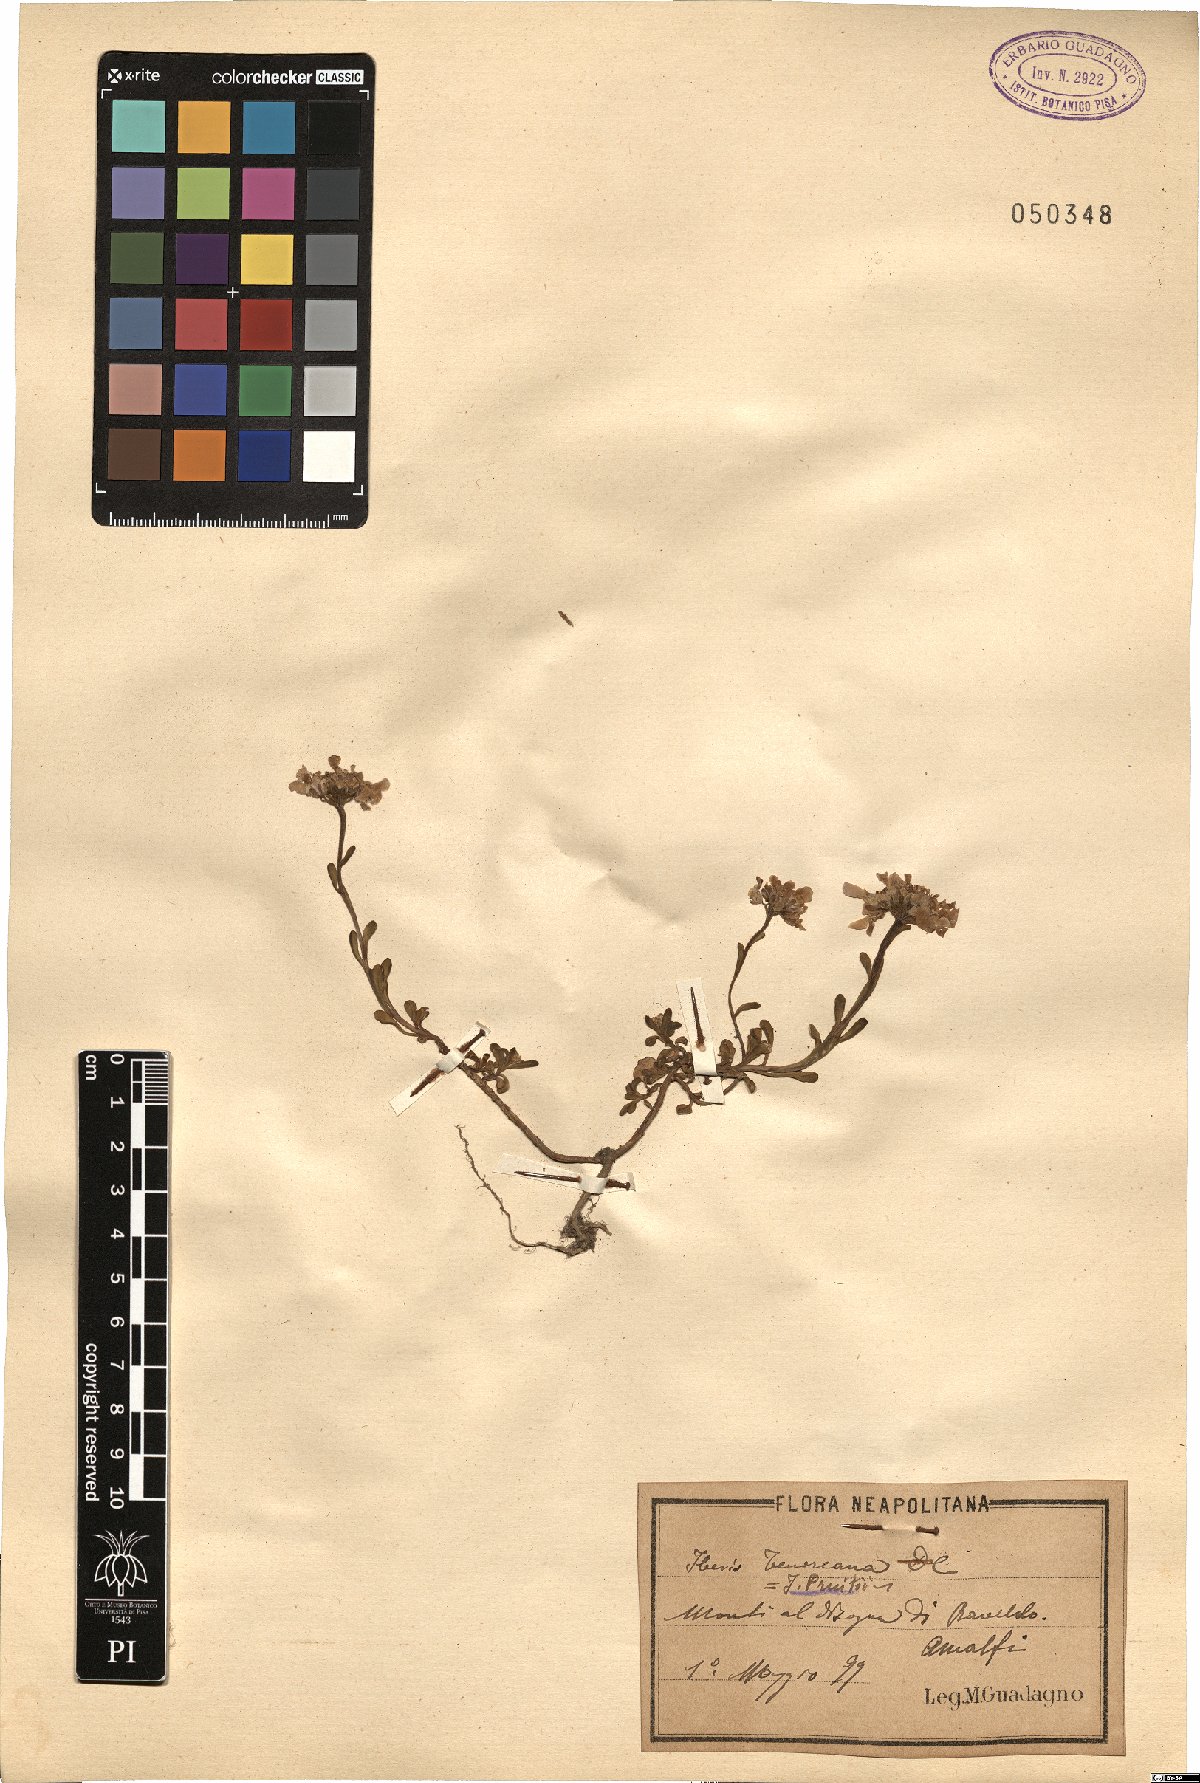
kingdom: Plantae
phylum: Tracheophyta
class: Magnoliopsida
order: Brassicales
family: Brassicaceae
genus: Iberis
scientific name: Iberis carnosa
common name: Pruit's candytuft
